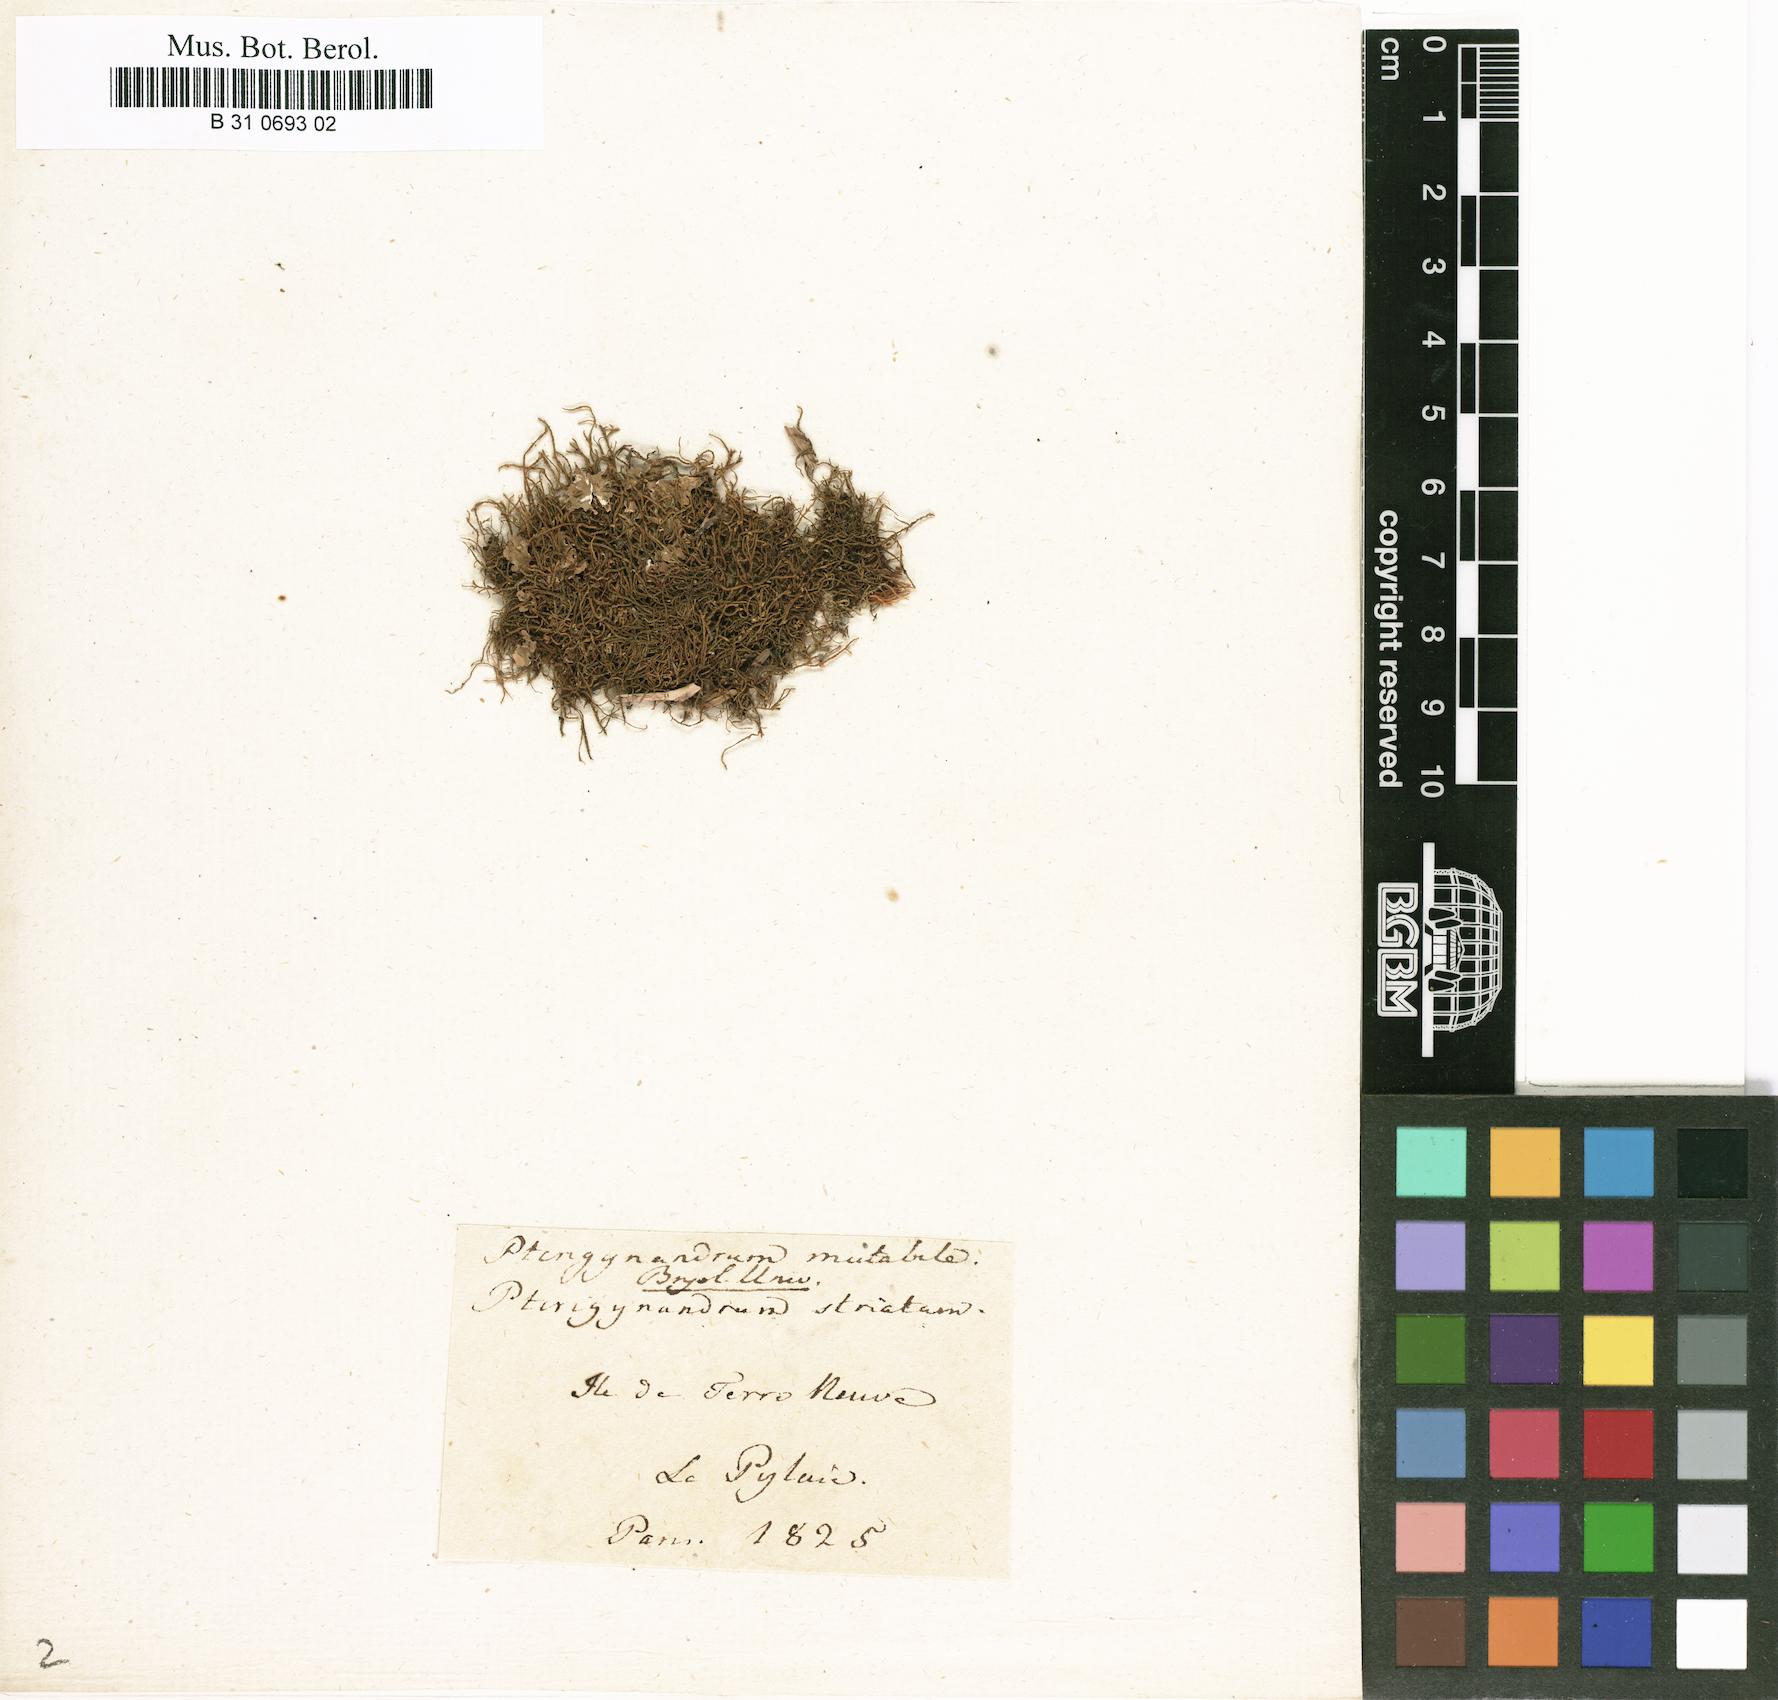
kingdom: Plantae
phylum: Bryophyta
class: Bryopsida
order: Hypnales
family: Pseudoleskeaceae
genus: Lescuraea
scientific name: Lescuraea mutabilis
